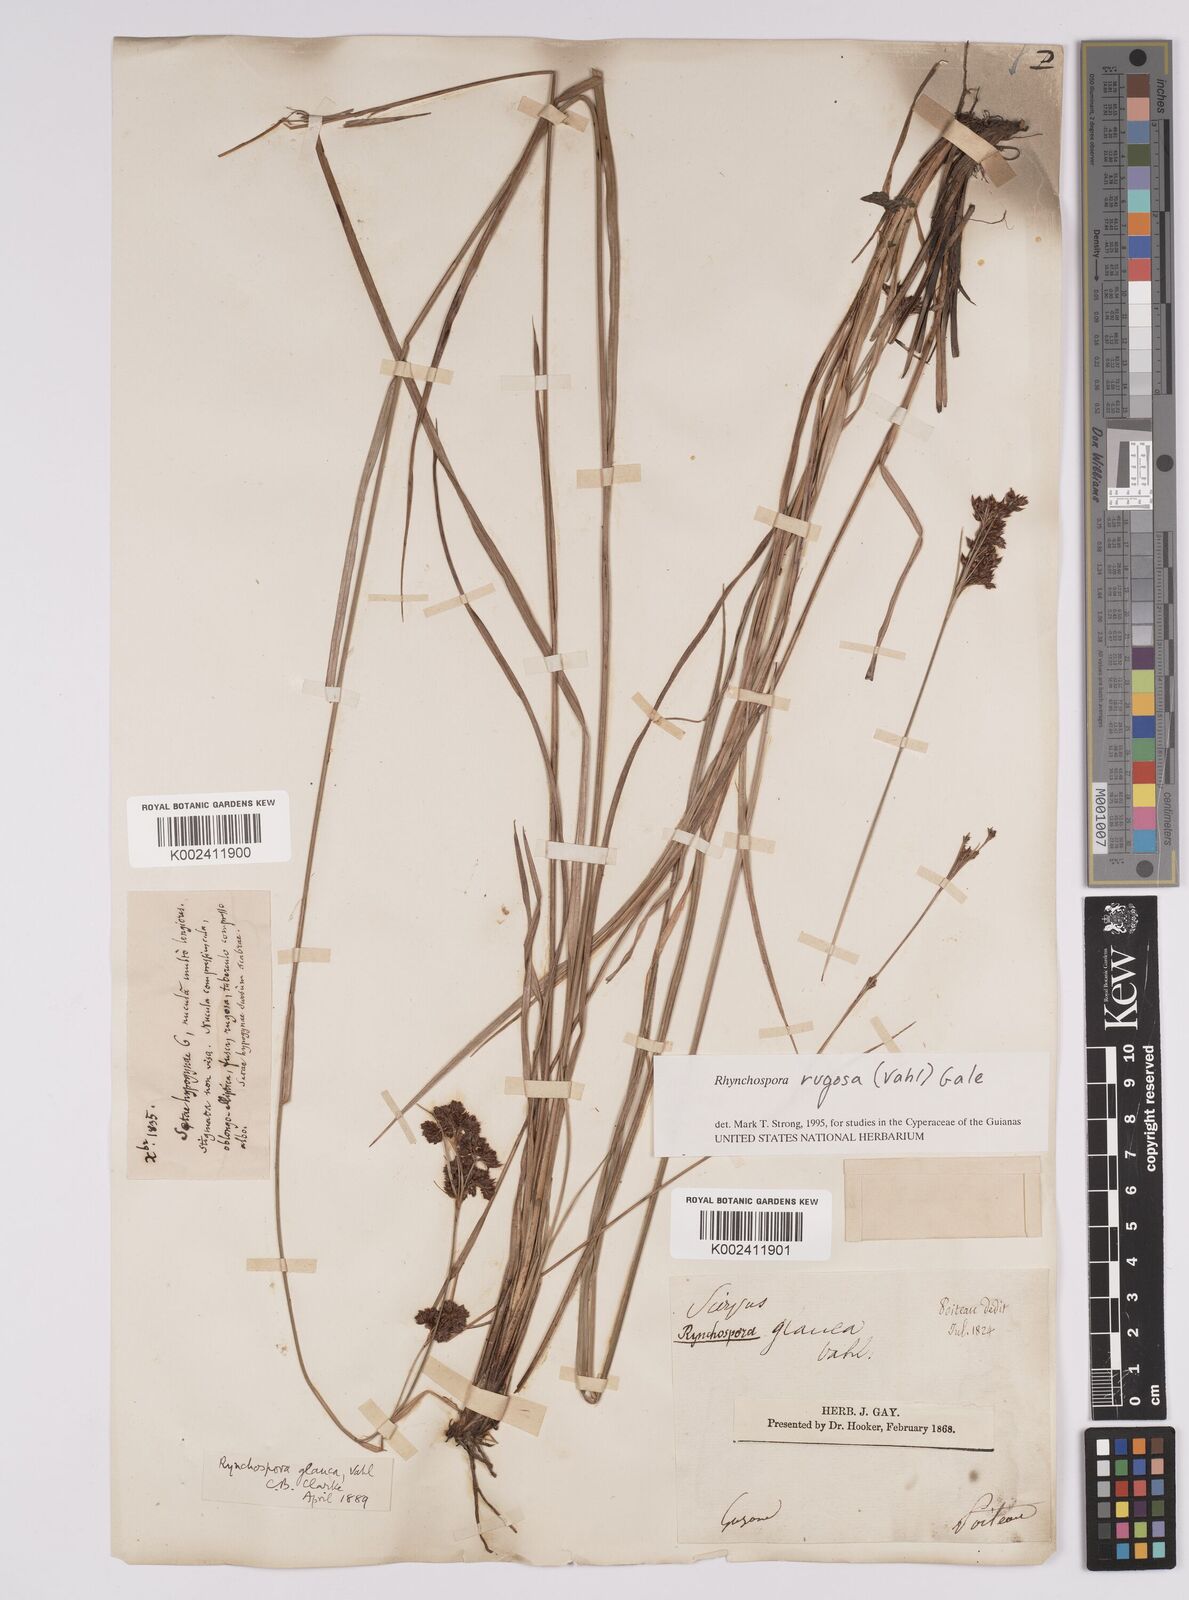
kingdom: Plantae
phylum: Tracheophyta
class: Liliopsida
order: Poales
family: Cyperaceae
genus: Rhynchospora
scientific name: Rhynchospora rugosa
